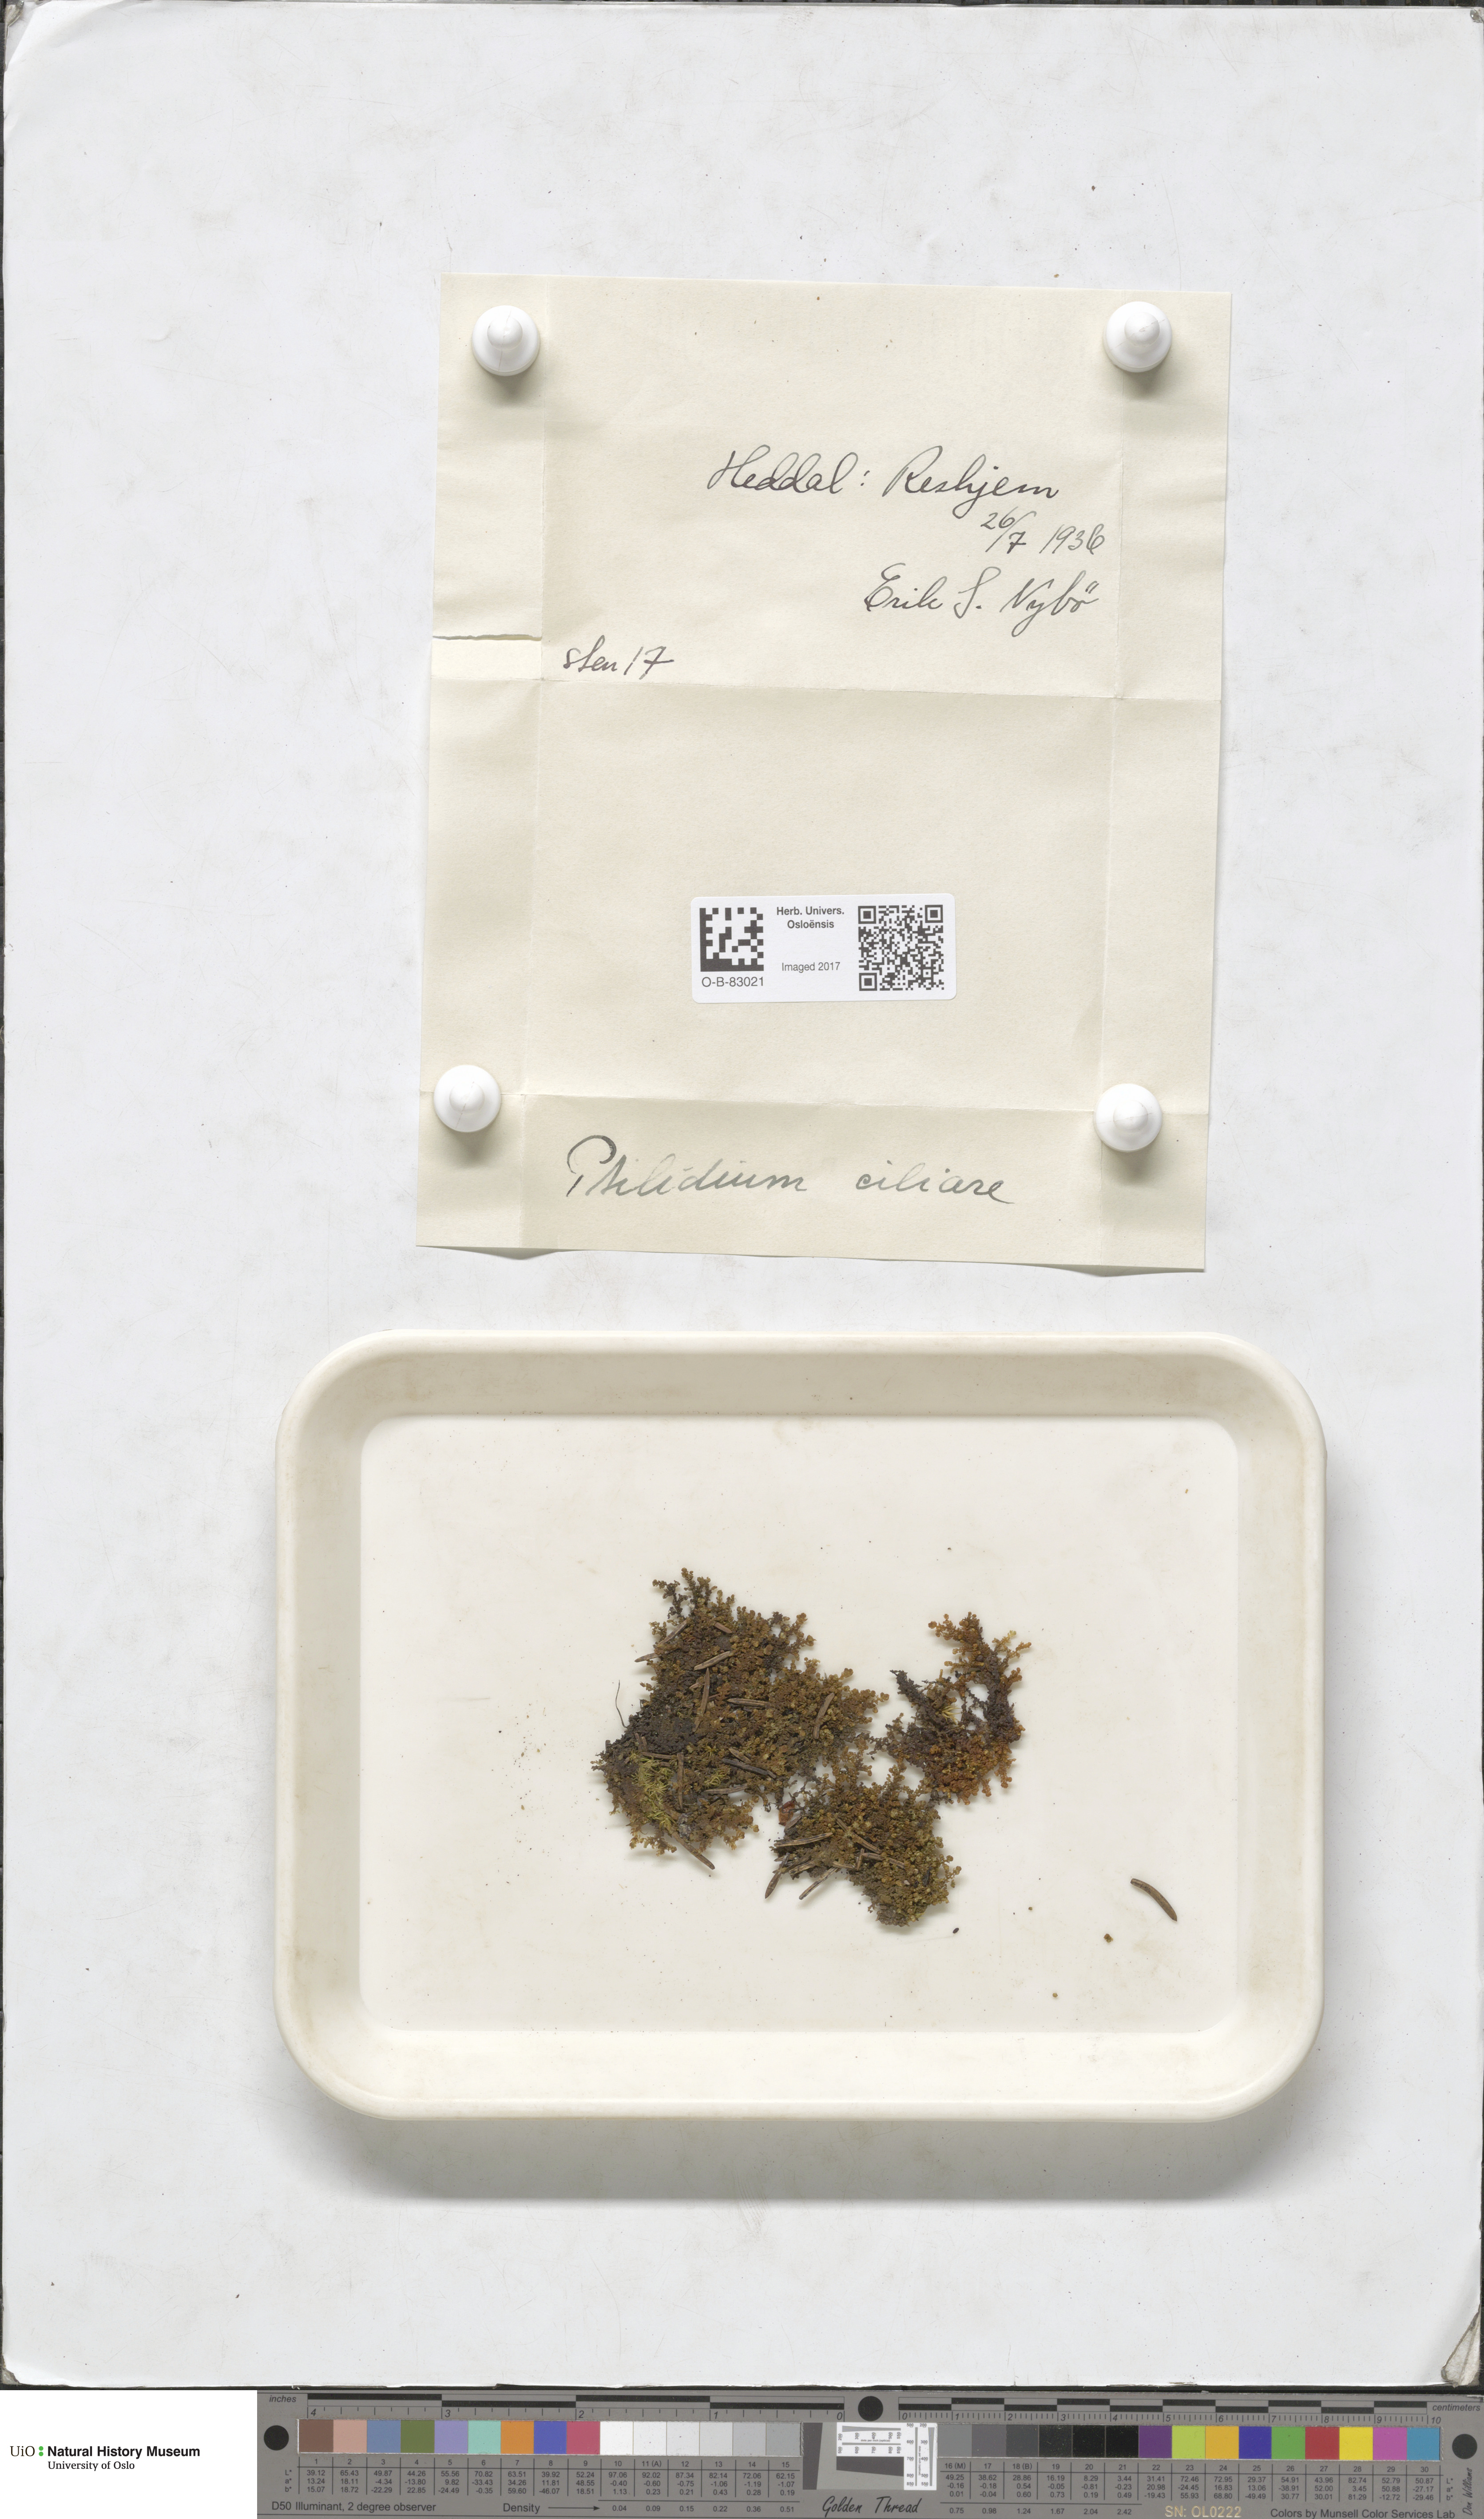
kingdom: Plantae
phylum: Marchantiophyta
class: Jungermanniopsida
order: Ptilidiales
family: Ptilidiaceae
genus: Ptilidium
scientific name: Ptilidium ciliare
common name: Ciliate fringewort
